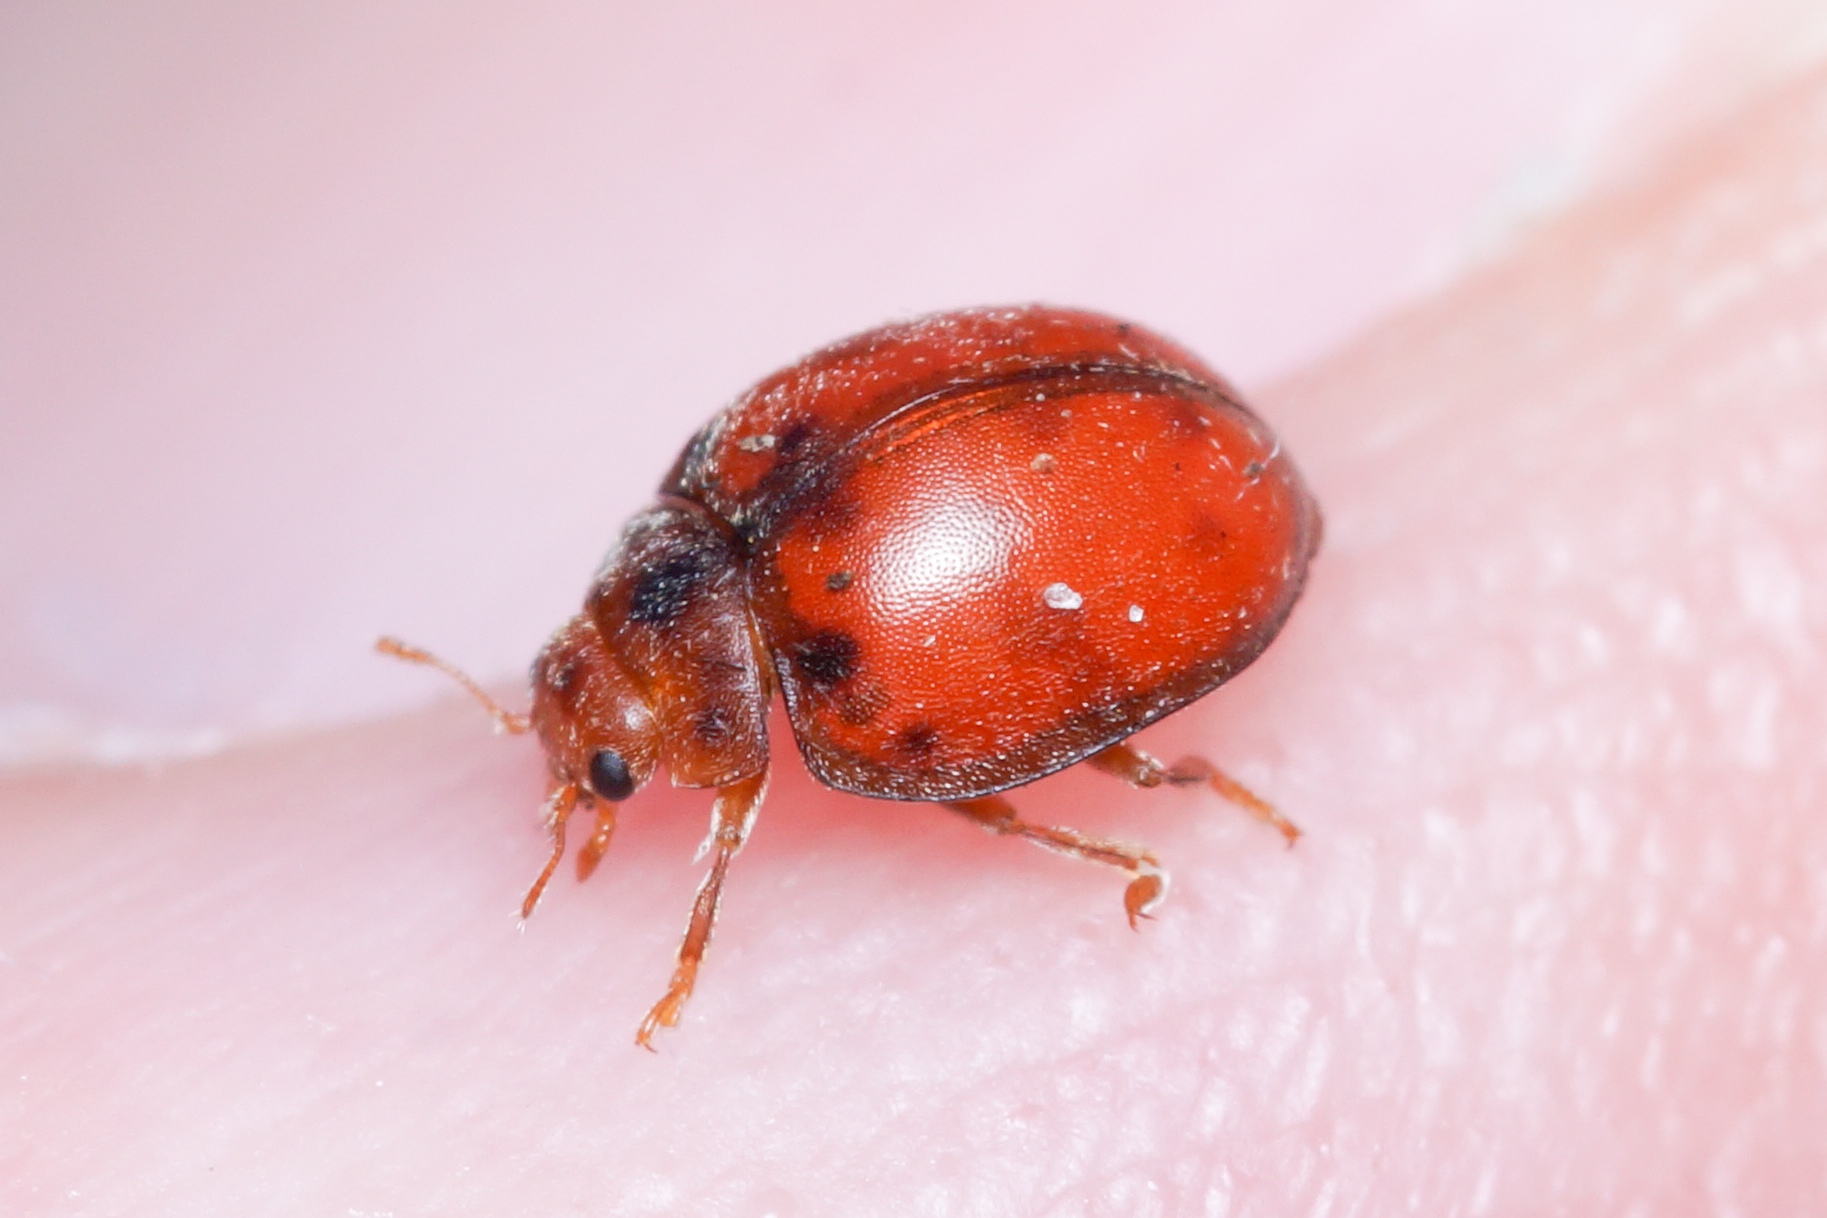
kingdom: Animalia
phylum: Arthropoda
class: Insecta
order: Coleoptera
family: Coccinellidae
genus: Subcoccinella
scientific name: Subcoccinella vigintiquatuorpunctata
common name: Fireogtyveplettet mariehøne
